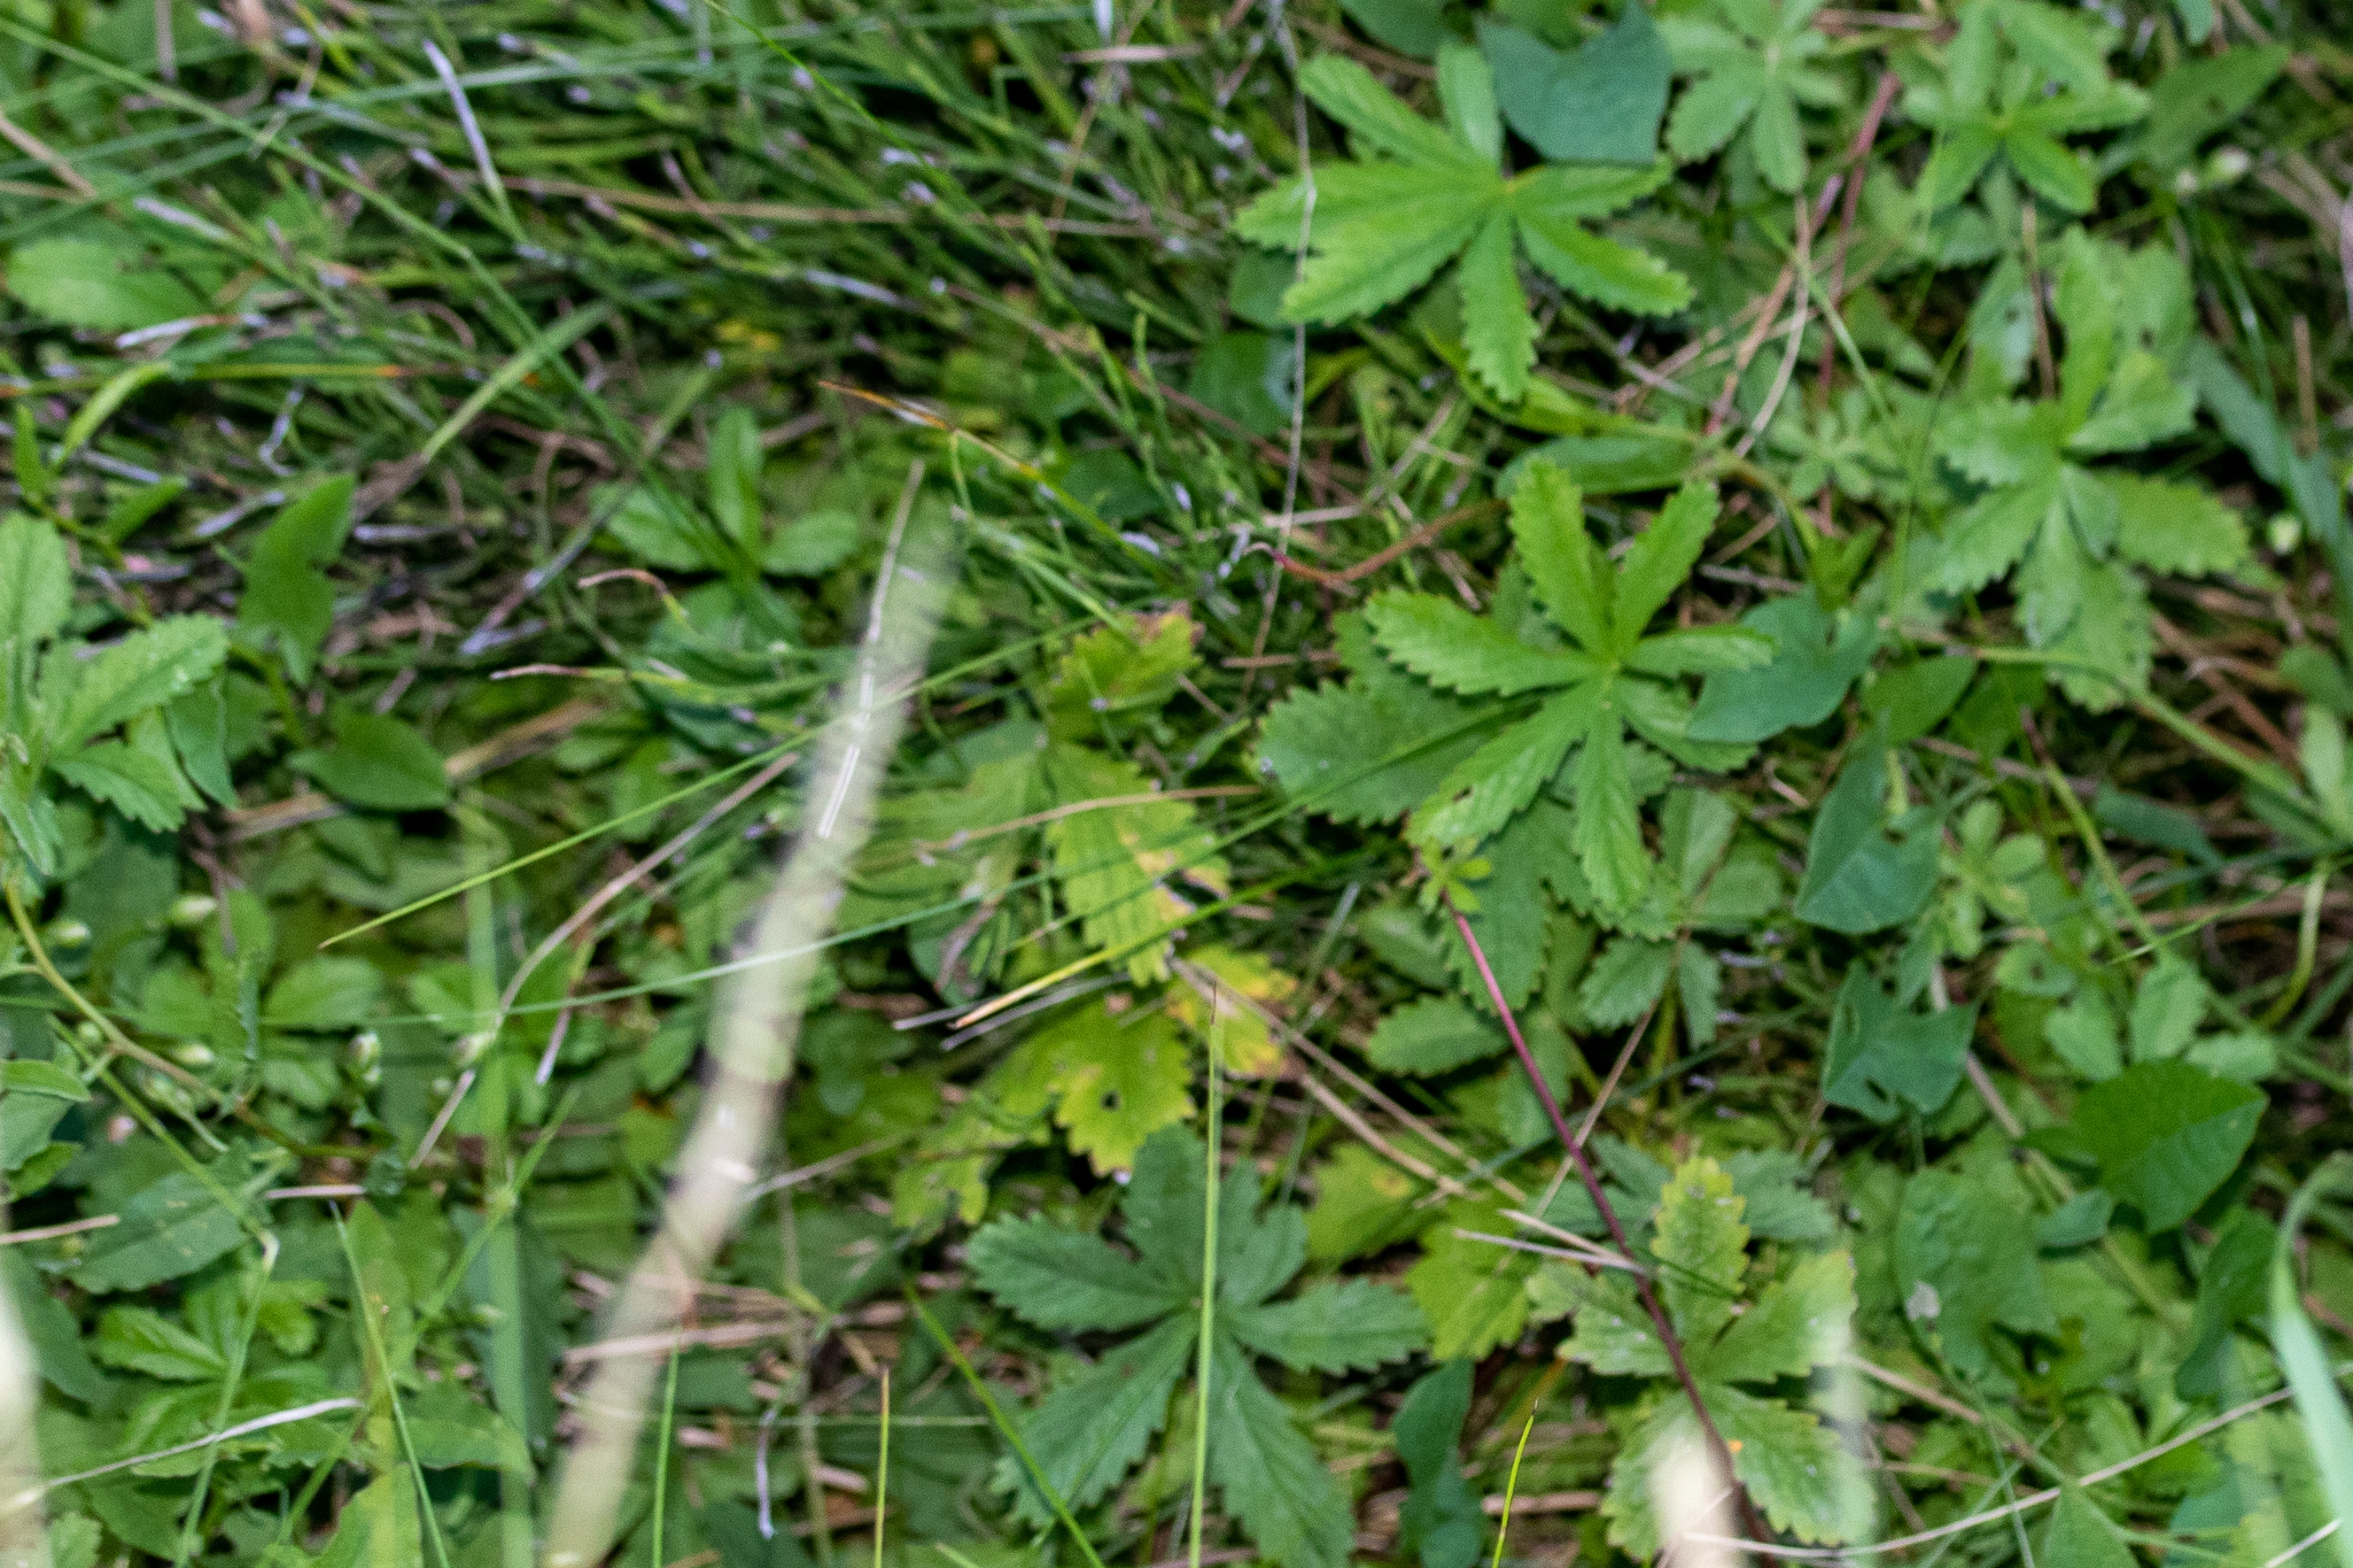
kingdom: Plantae
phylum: Tracheophyta
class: Magnoliopsida
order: Rosales
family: Rosaceae
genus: Potentilla
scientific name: Potentilla reptans
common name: Krybende potentil
